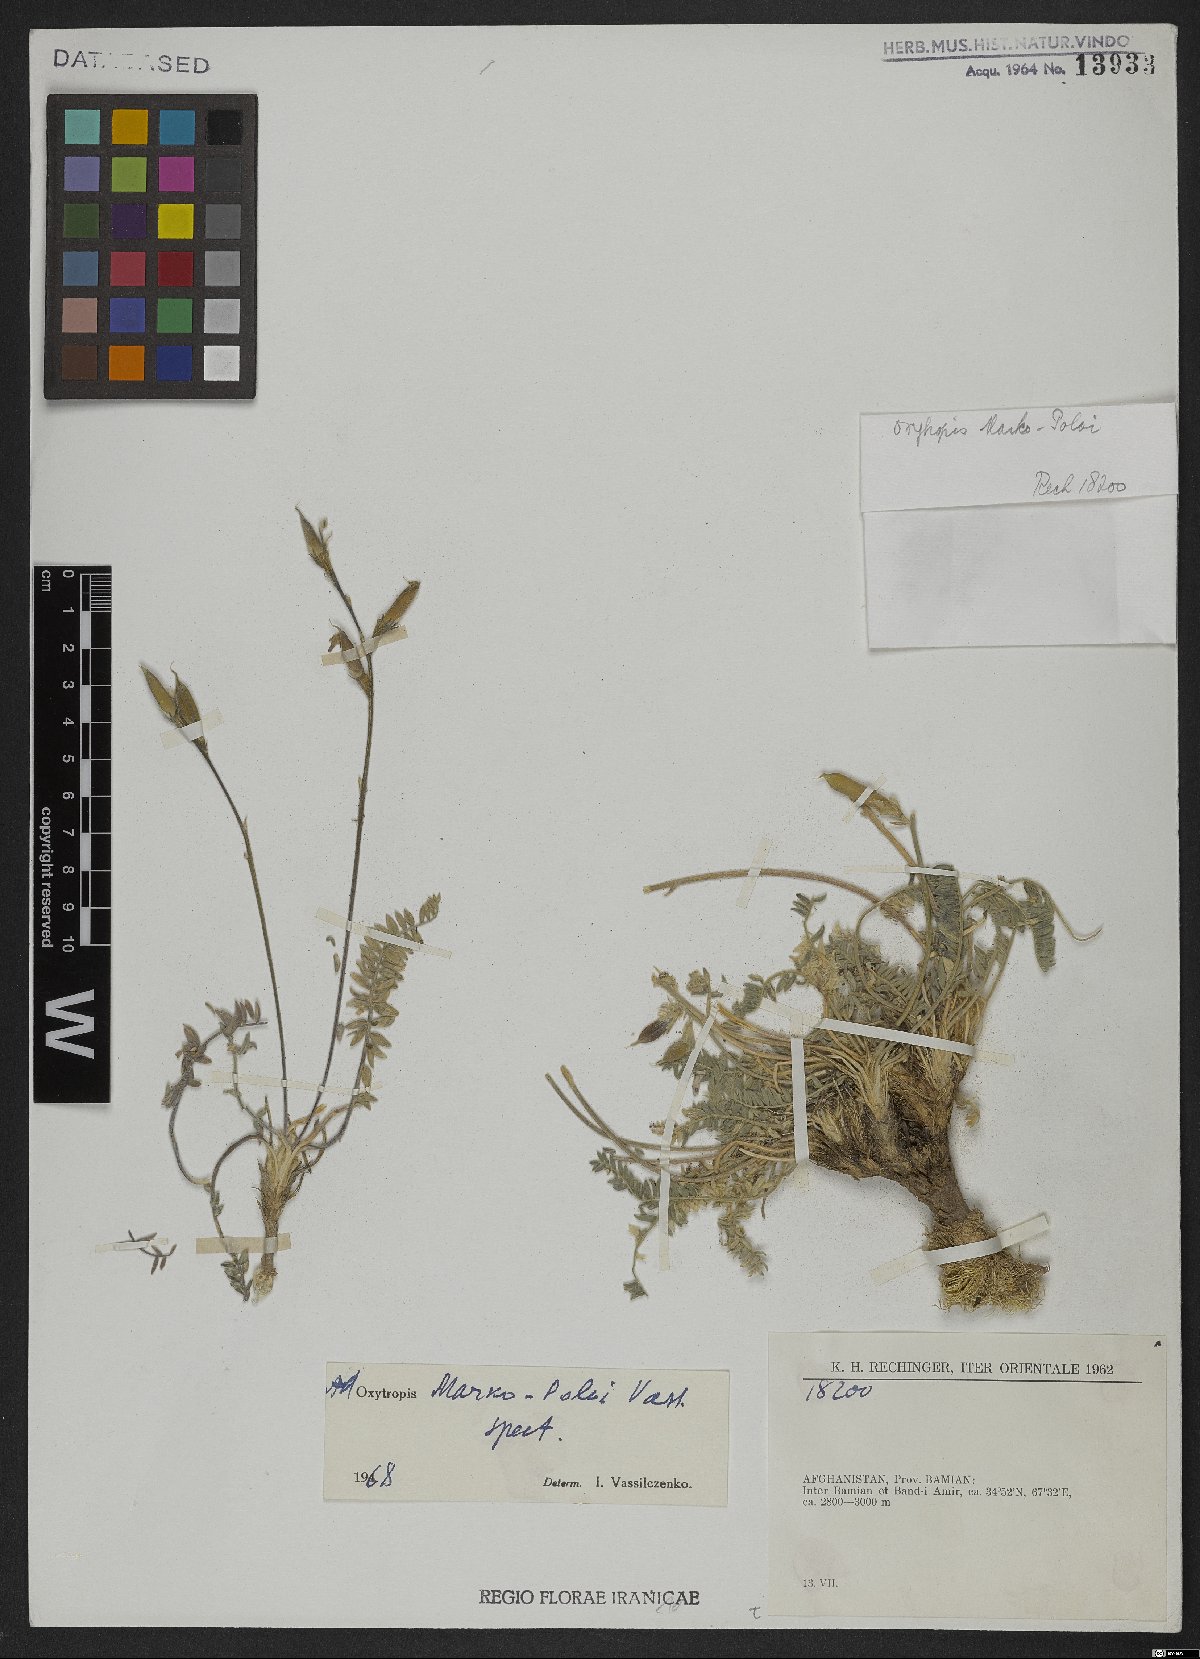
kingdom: Plantae
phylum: Tracheophyta
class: Magnoliopsida
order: Fabales
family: Fabaceae
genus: Oxytropis
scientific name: Oxytropis marco-poloi
